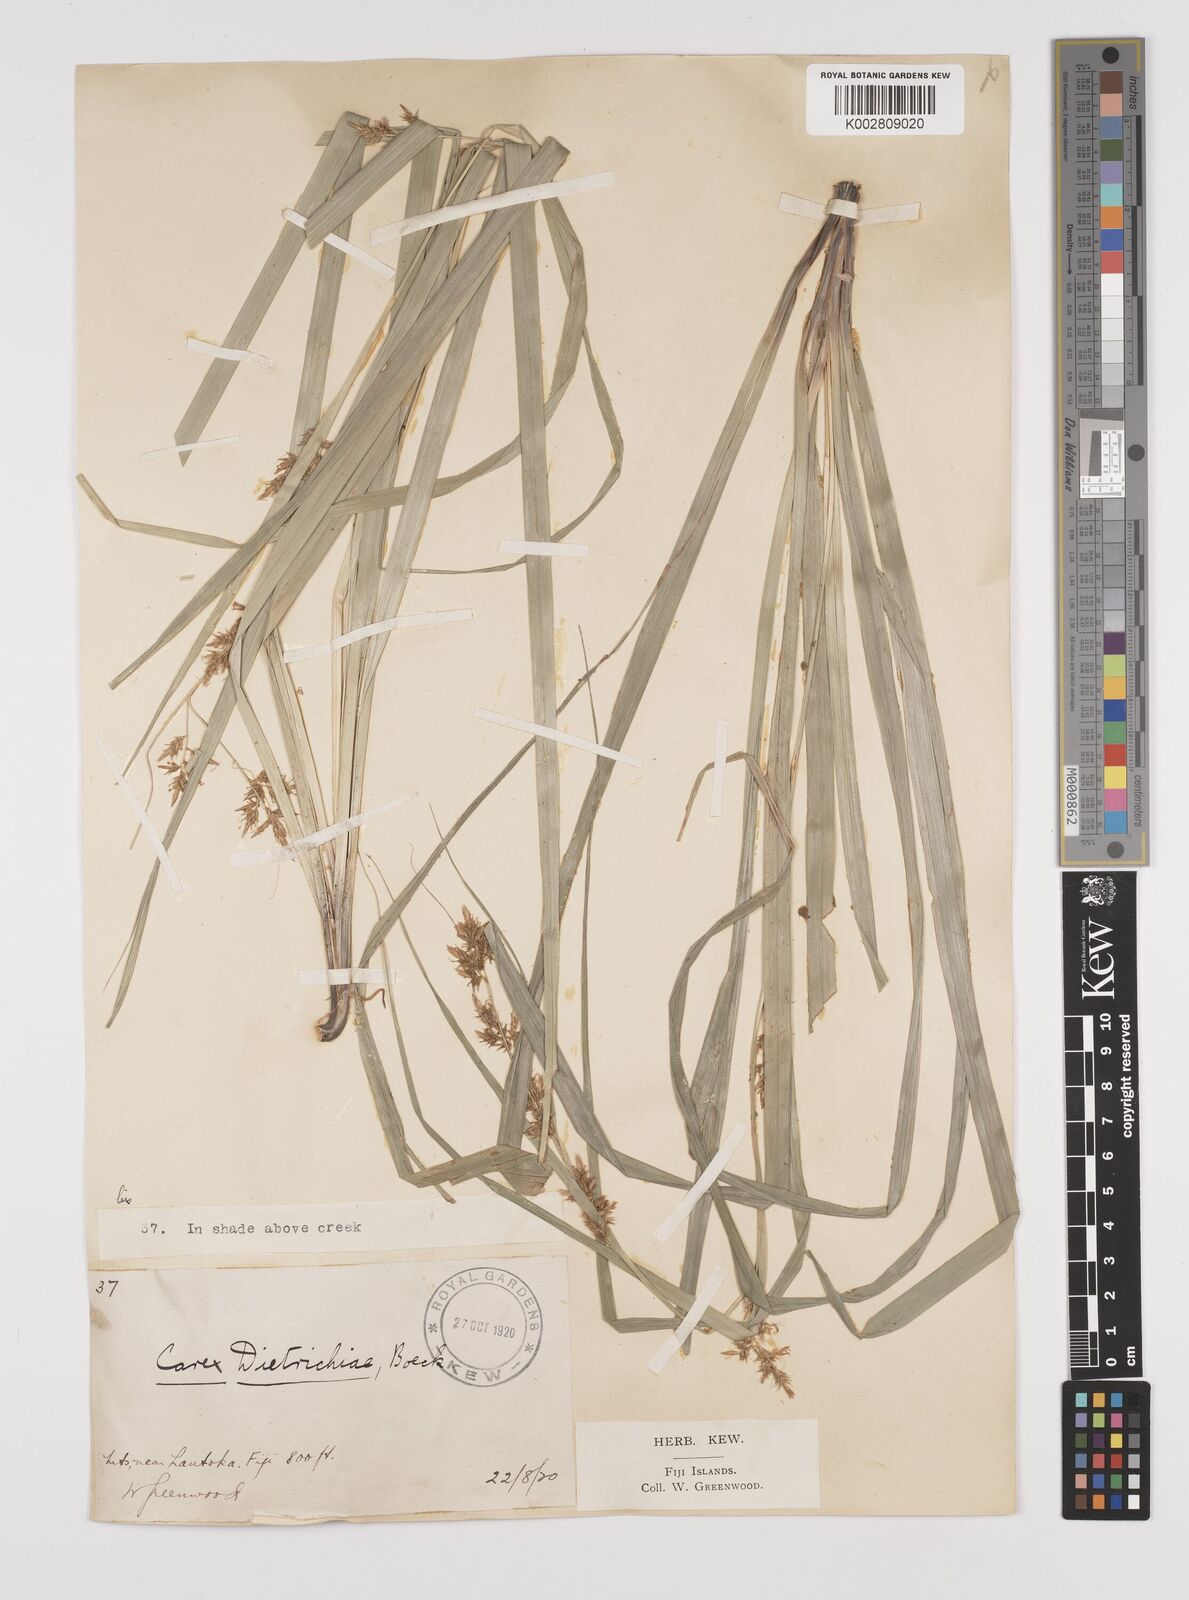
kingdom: Plantae
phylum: Tracheophyta
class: Liliopsida
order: Poales
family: Cyperaceae
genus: Carex
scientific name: Carex indica
